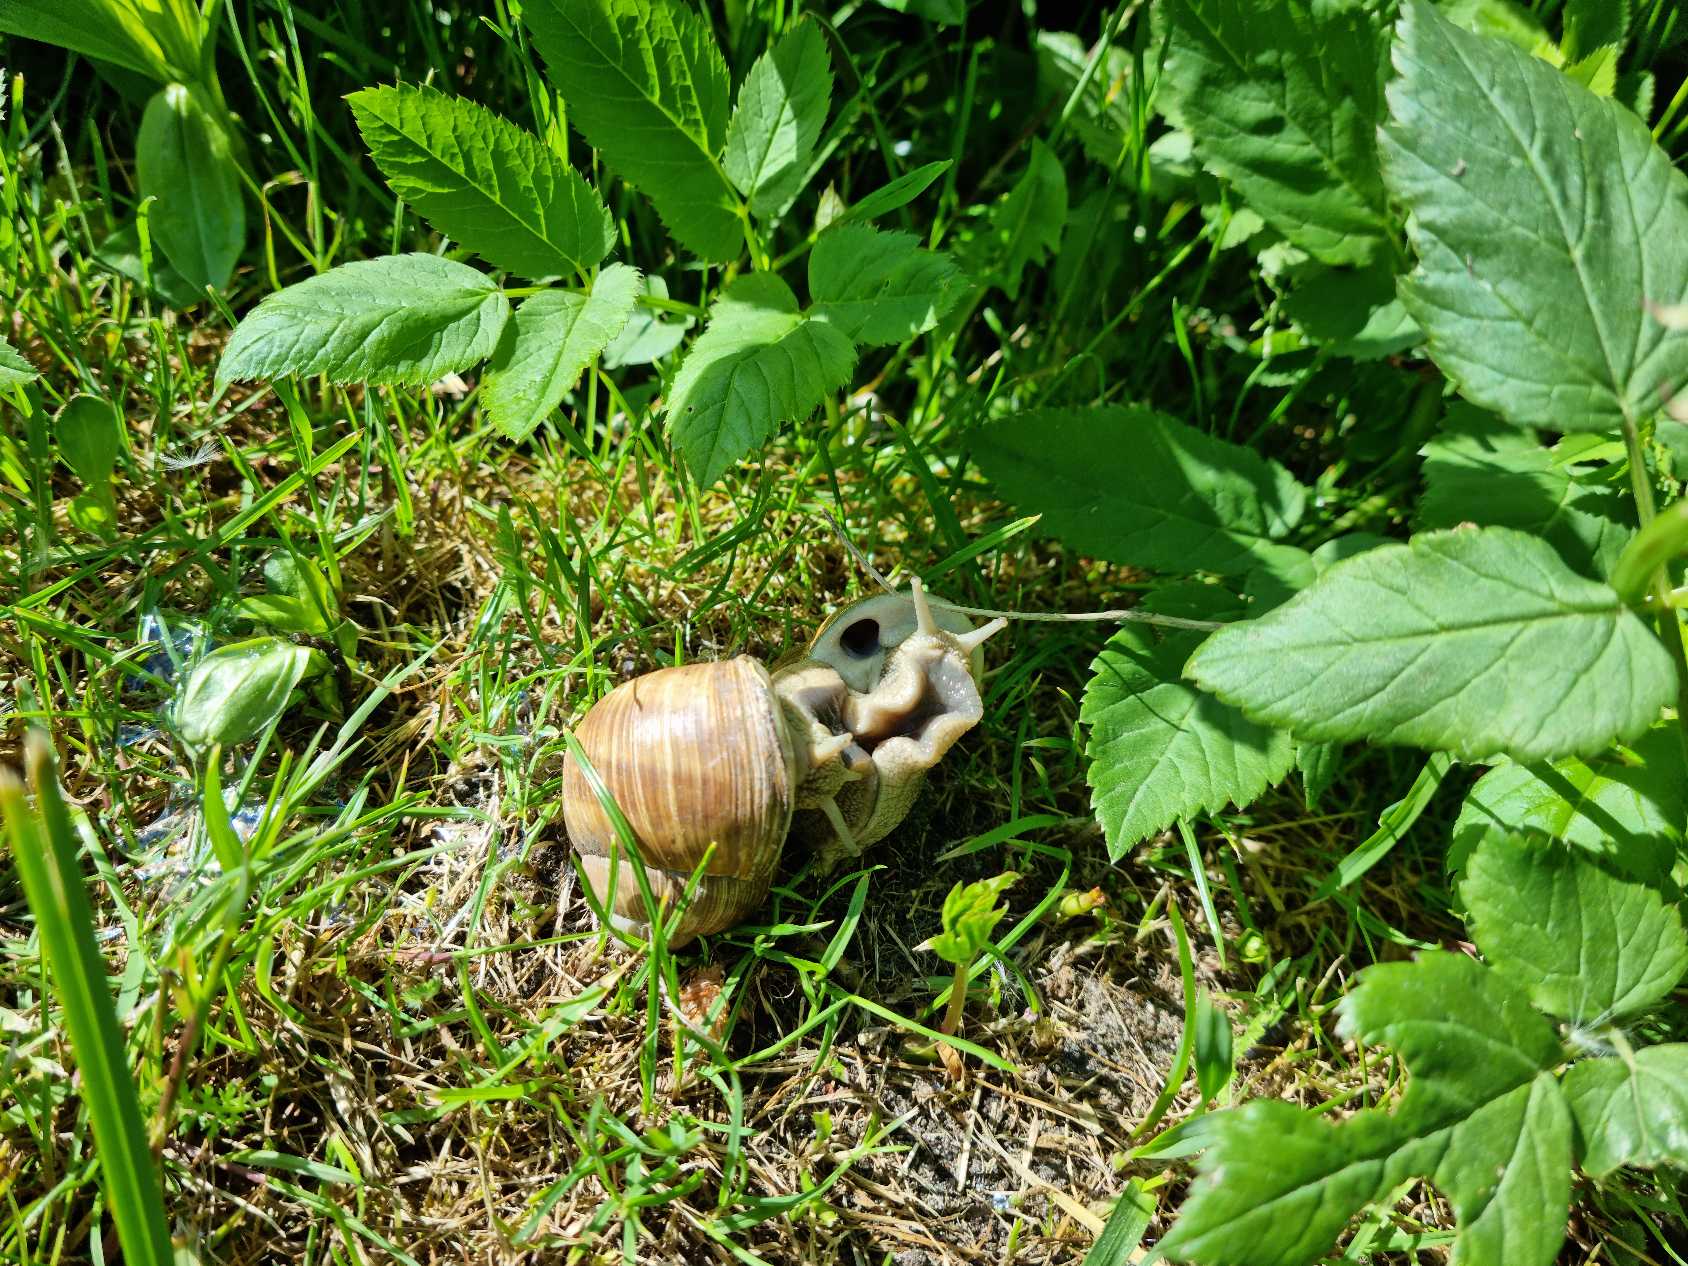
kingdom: Animalia
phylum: Mollusca
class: Gastropoda
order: Stylommatophora
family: Helicidae
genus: Helix
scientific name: Helix pomatia
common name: Vinbjergsnegl
